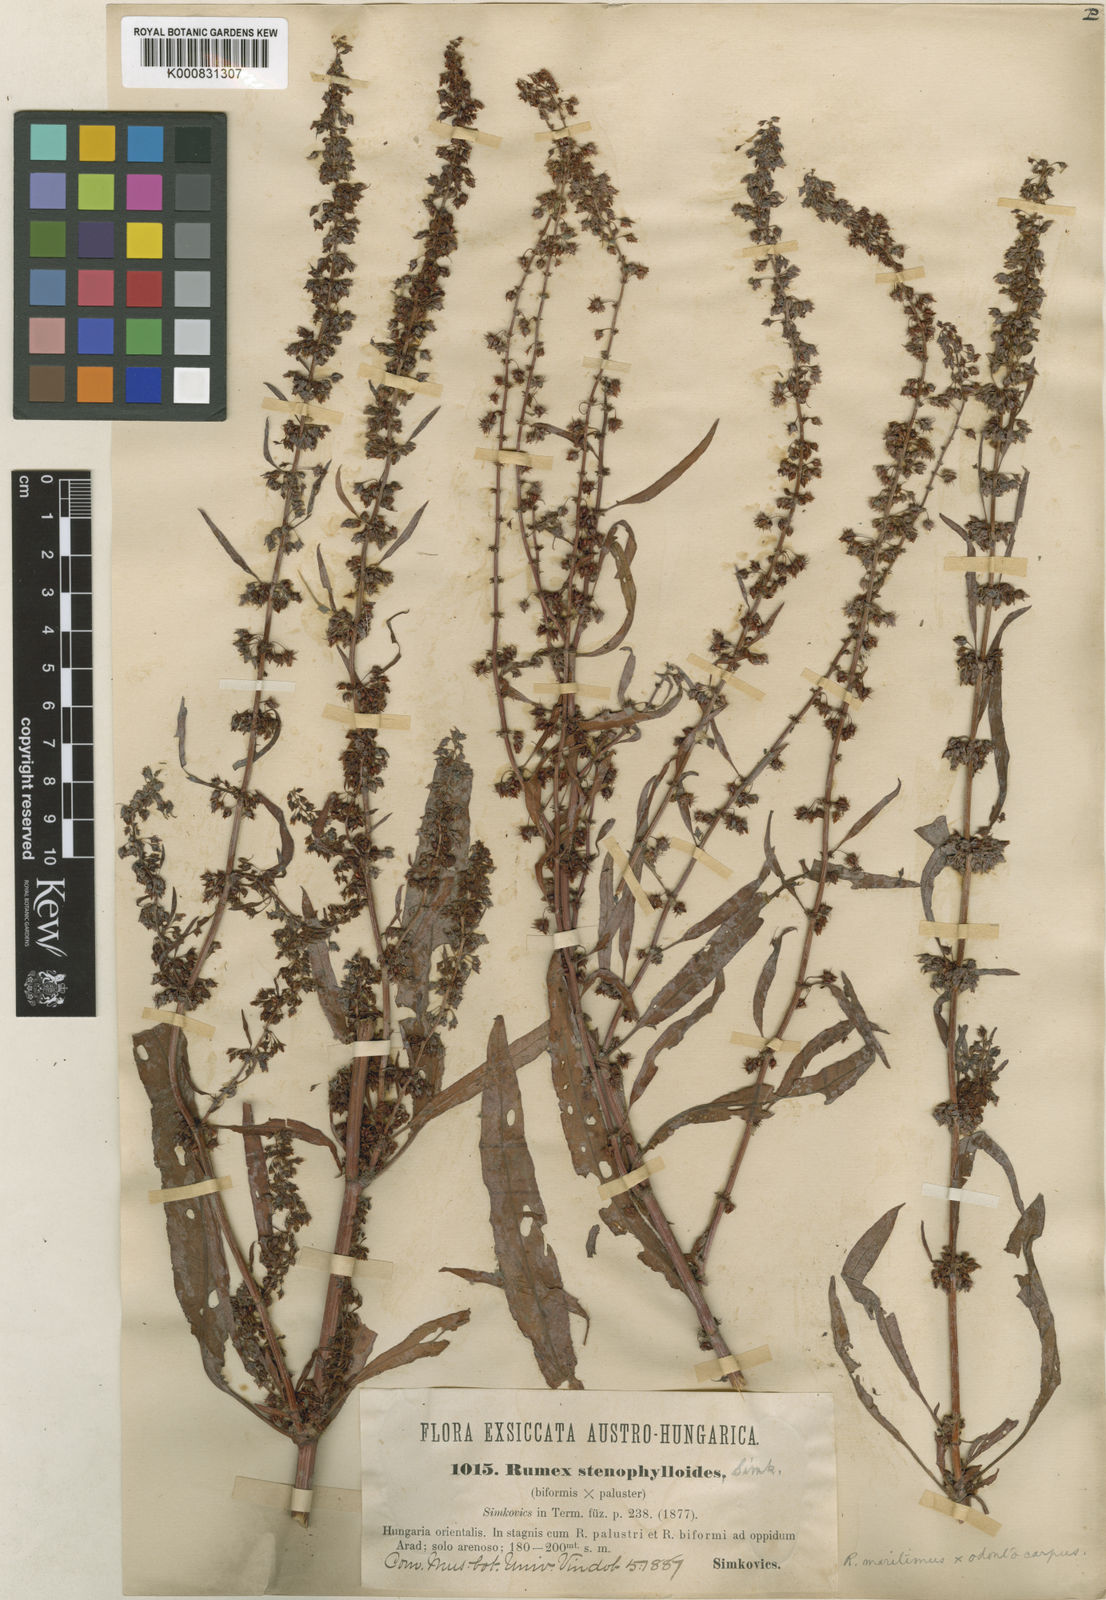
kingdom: Plantae
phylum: Tracheophyta
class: Magnoliopsida
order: Caryophyllales
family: Polygonaceae
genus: Rumex
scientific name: Rumex stenophylloides
